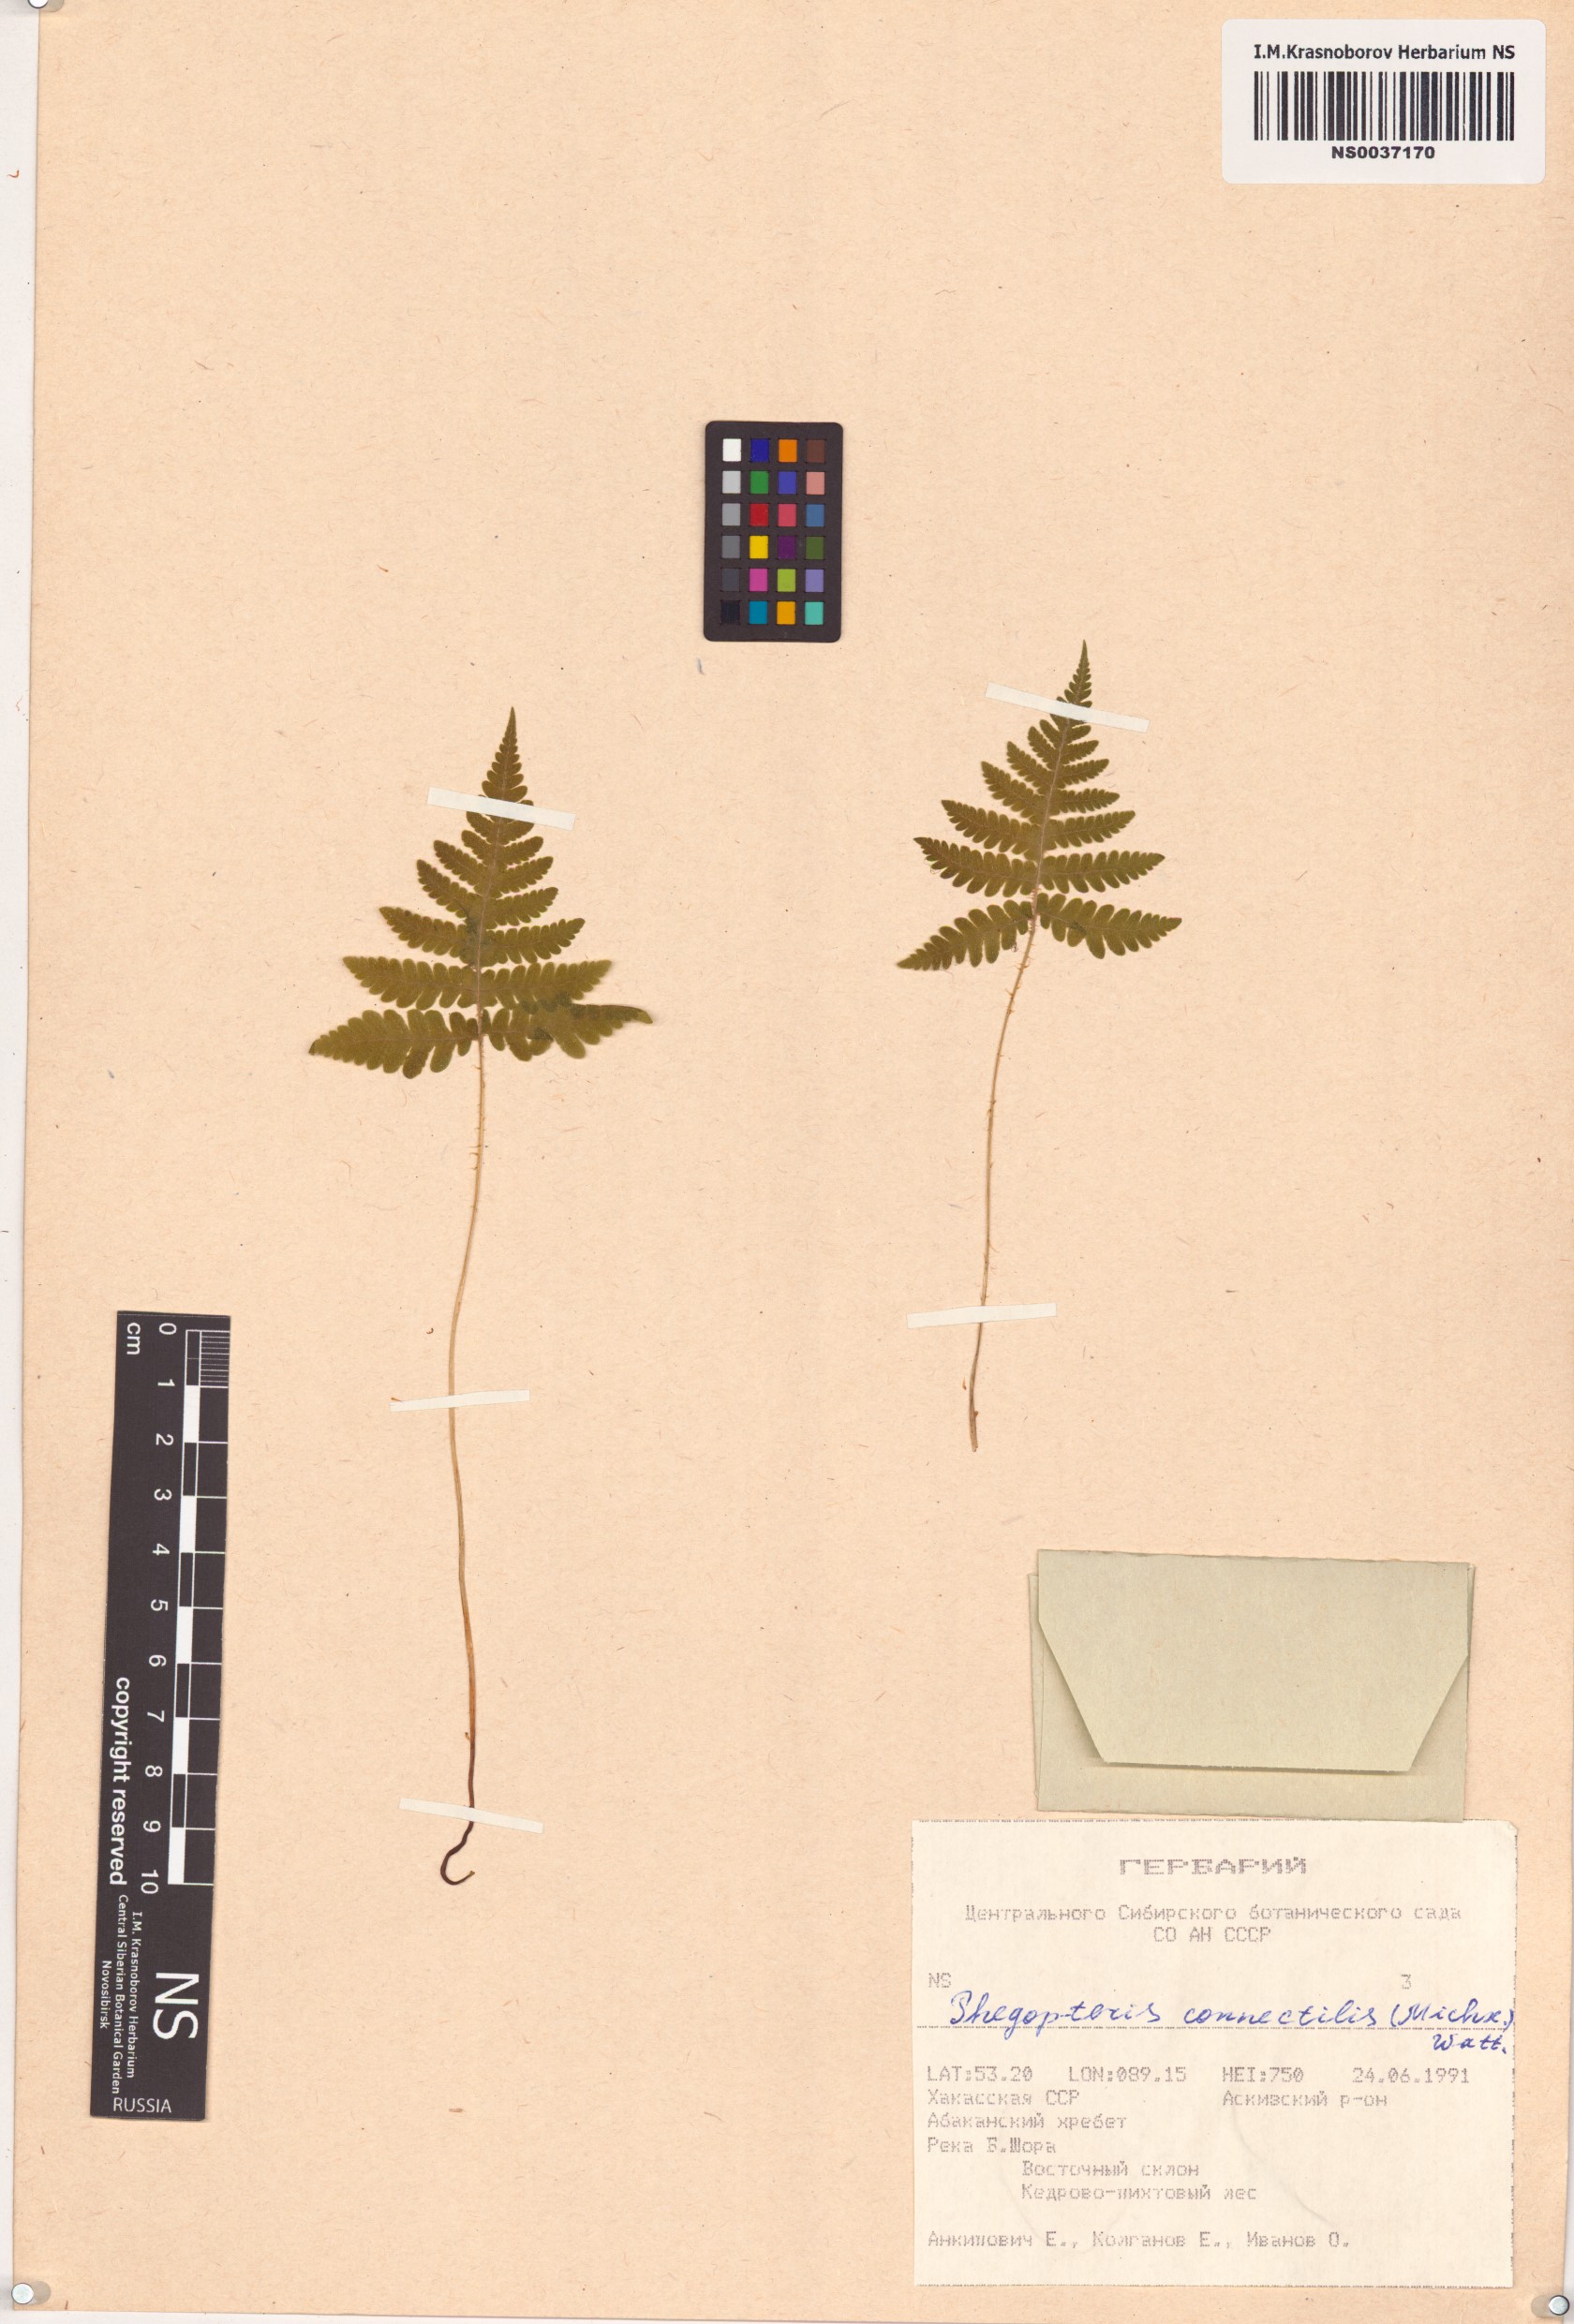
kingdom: Plantae
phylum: Tracheophyta
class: Polypodiopsida
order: Polypodiales
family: Thelypteridaceae
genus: Phegopteris
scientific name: Phegopteris connectilis
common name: Beech fern
